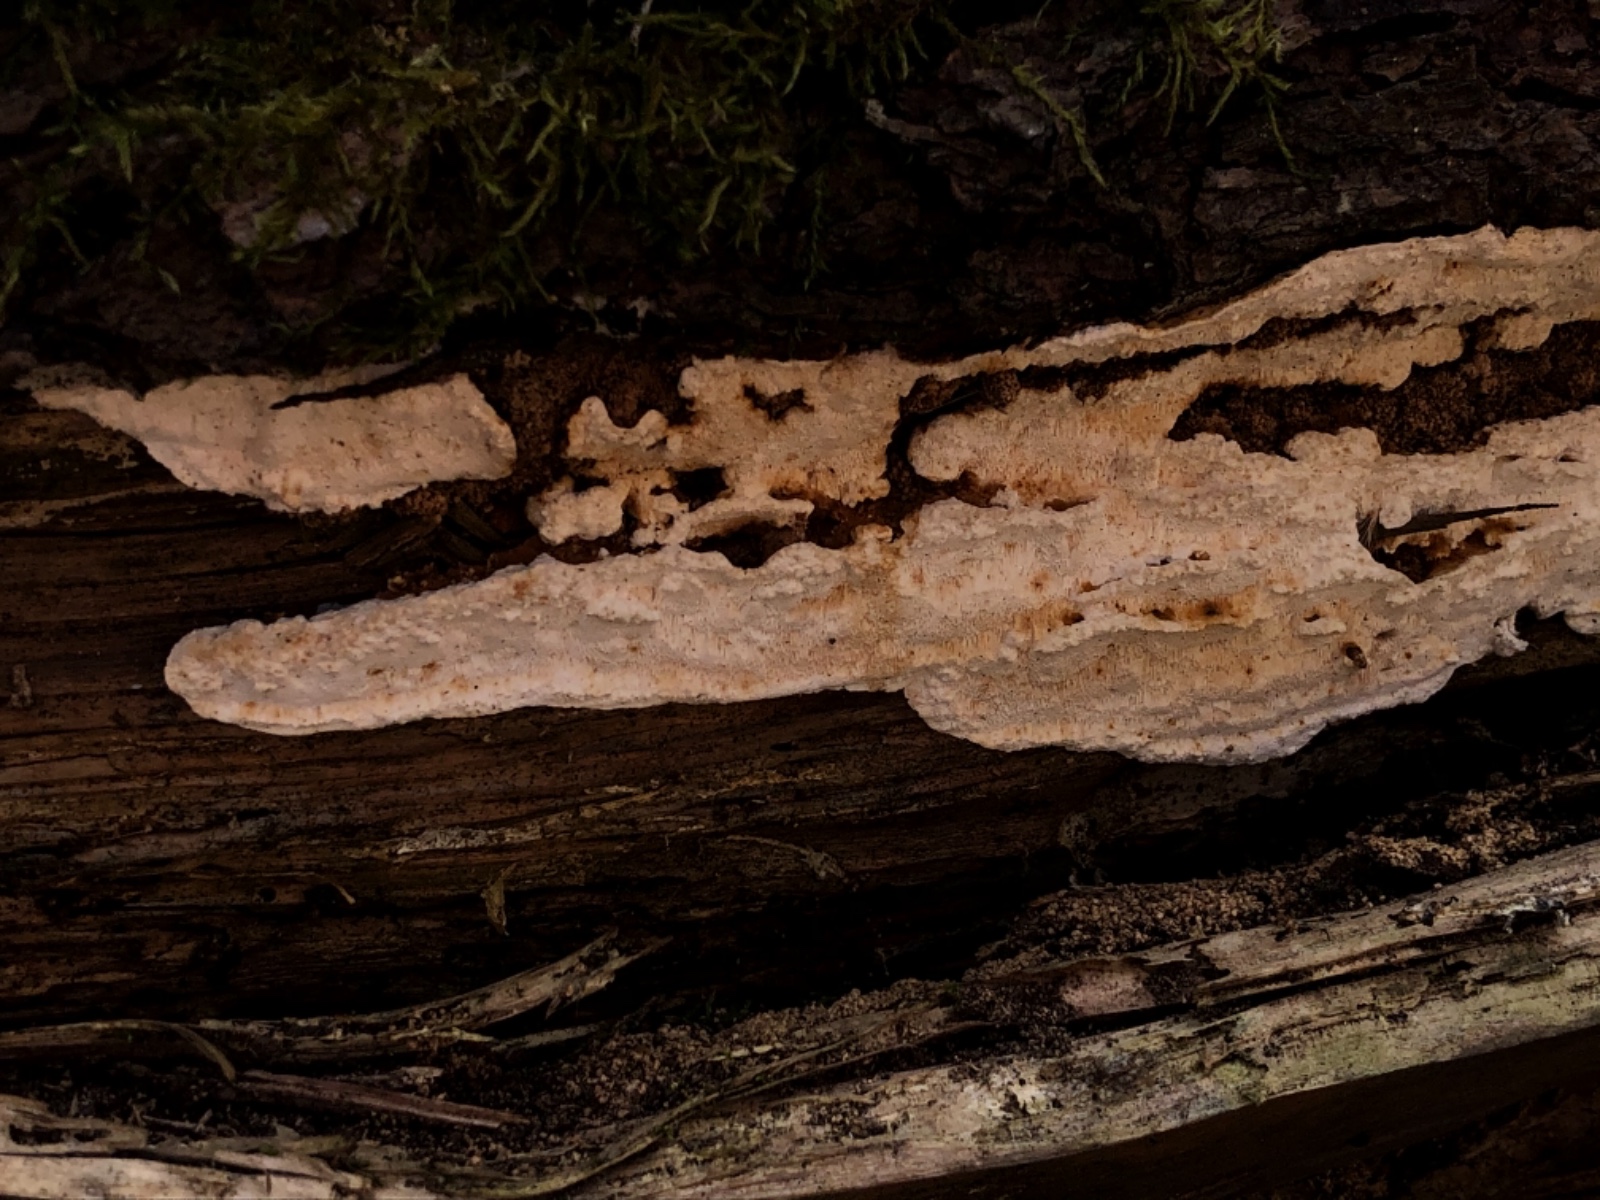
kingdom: Fungi
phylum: Basidiomycota
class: Agaricomycetes
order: Polyporales
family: Fomitopsidaceae
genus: Neoantrodia
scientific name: Neoantrodia serialis
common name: række-sejporesvamp
